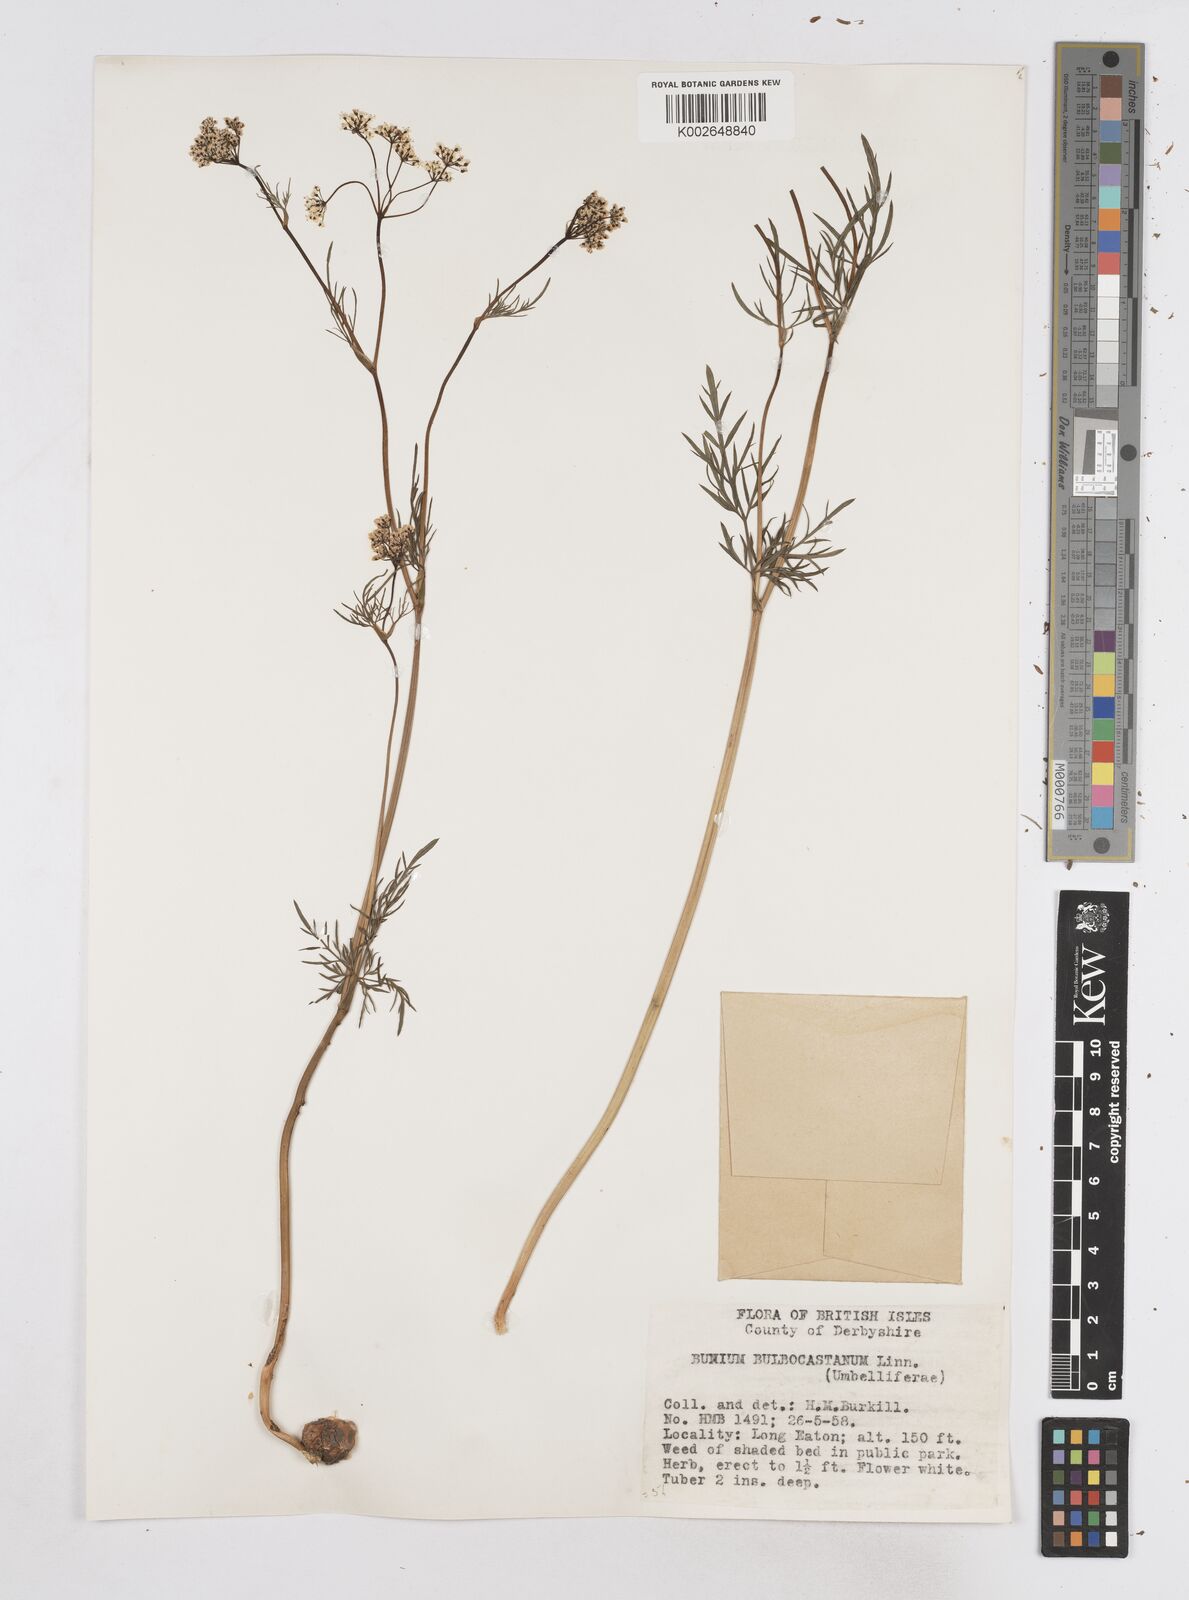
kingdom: Plantae
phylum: Tracheophyta
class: Magnoliopsida
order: Apiales
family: Apiaceae
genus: Bunium
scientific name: Bunium bulbocastanum
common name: Great pignut
